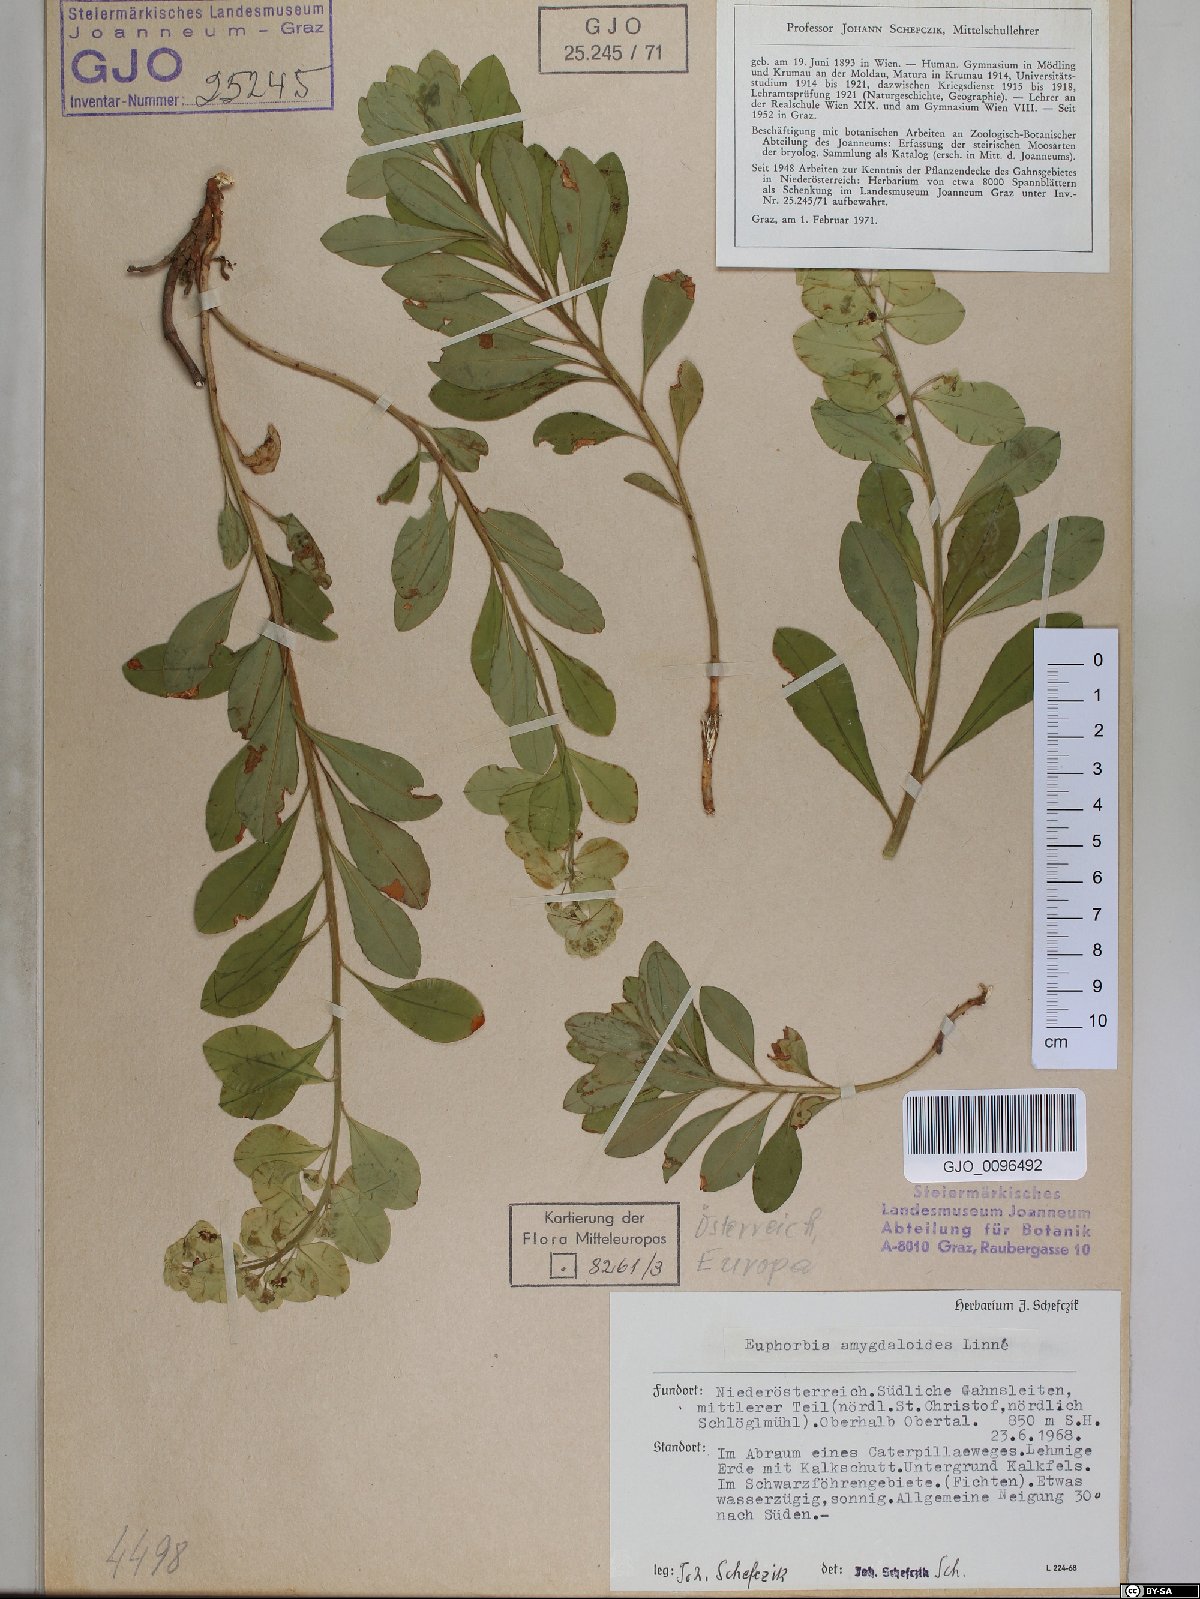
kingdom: Plantae
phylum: Tracheophyta
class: Magnoliopsida
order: Malpighiales
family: Euphorbiaceae
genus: Euphorbia
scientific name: Euphorbia amygdaloides
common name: Wood spurge
